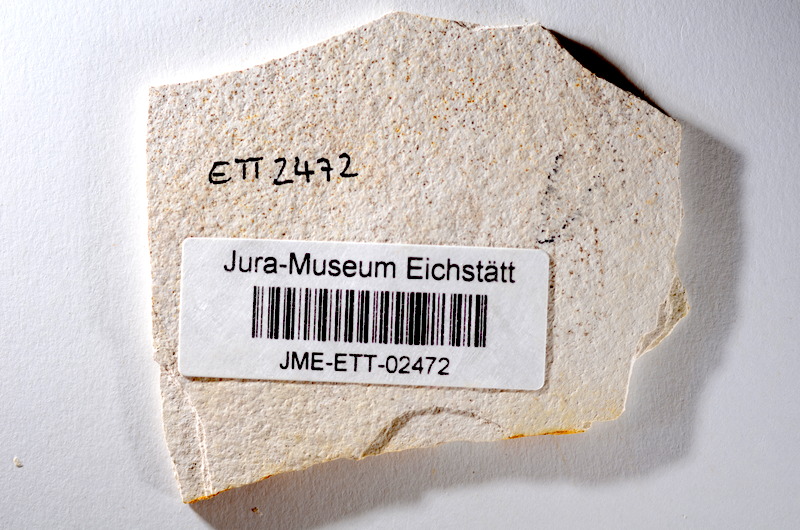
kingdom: Animalia
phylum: Chordata
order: Salmoniformes
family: Orthogonikleithridae
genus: Orthogonikleithrus
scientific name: Orthogonikleithrus hoelli
